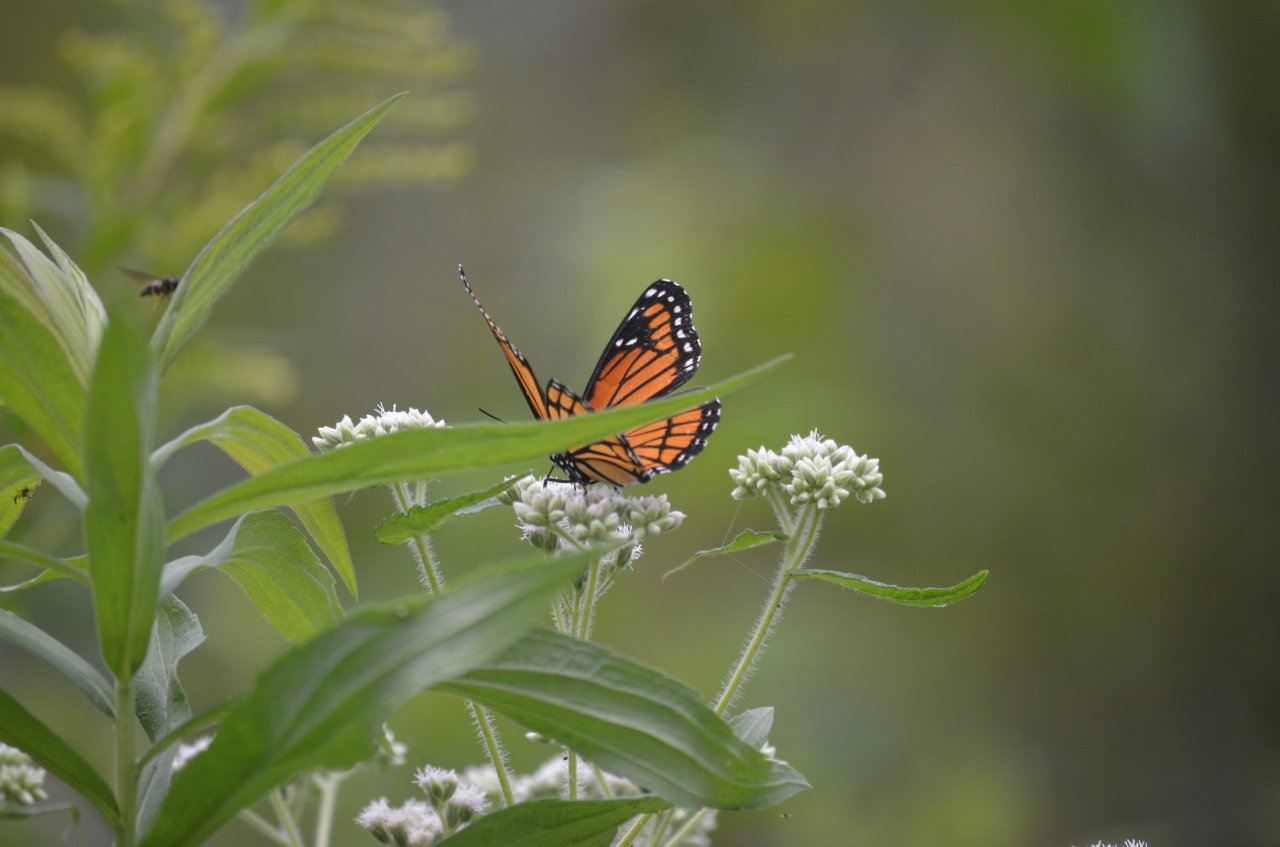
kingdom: Animalia
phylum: Arthropoda
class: Insecta
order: Lepidoptera
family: Nymphalidae
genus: Limenitis
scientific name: Limenitis archippus
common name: Viceroy
